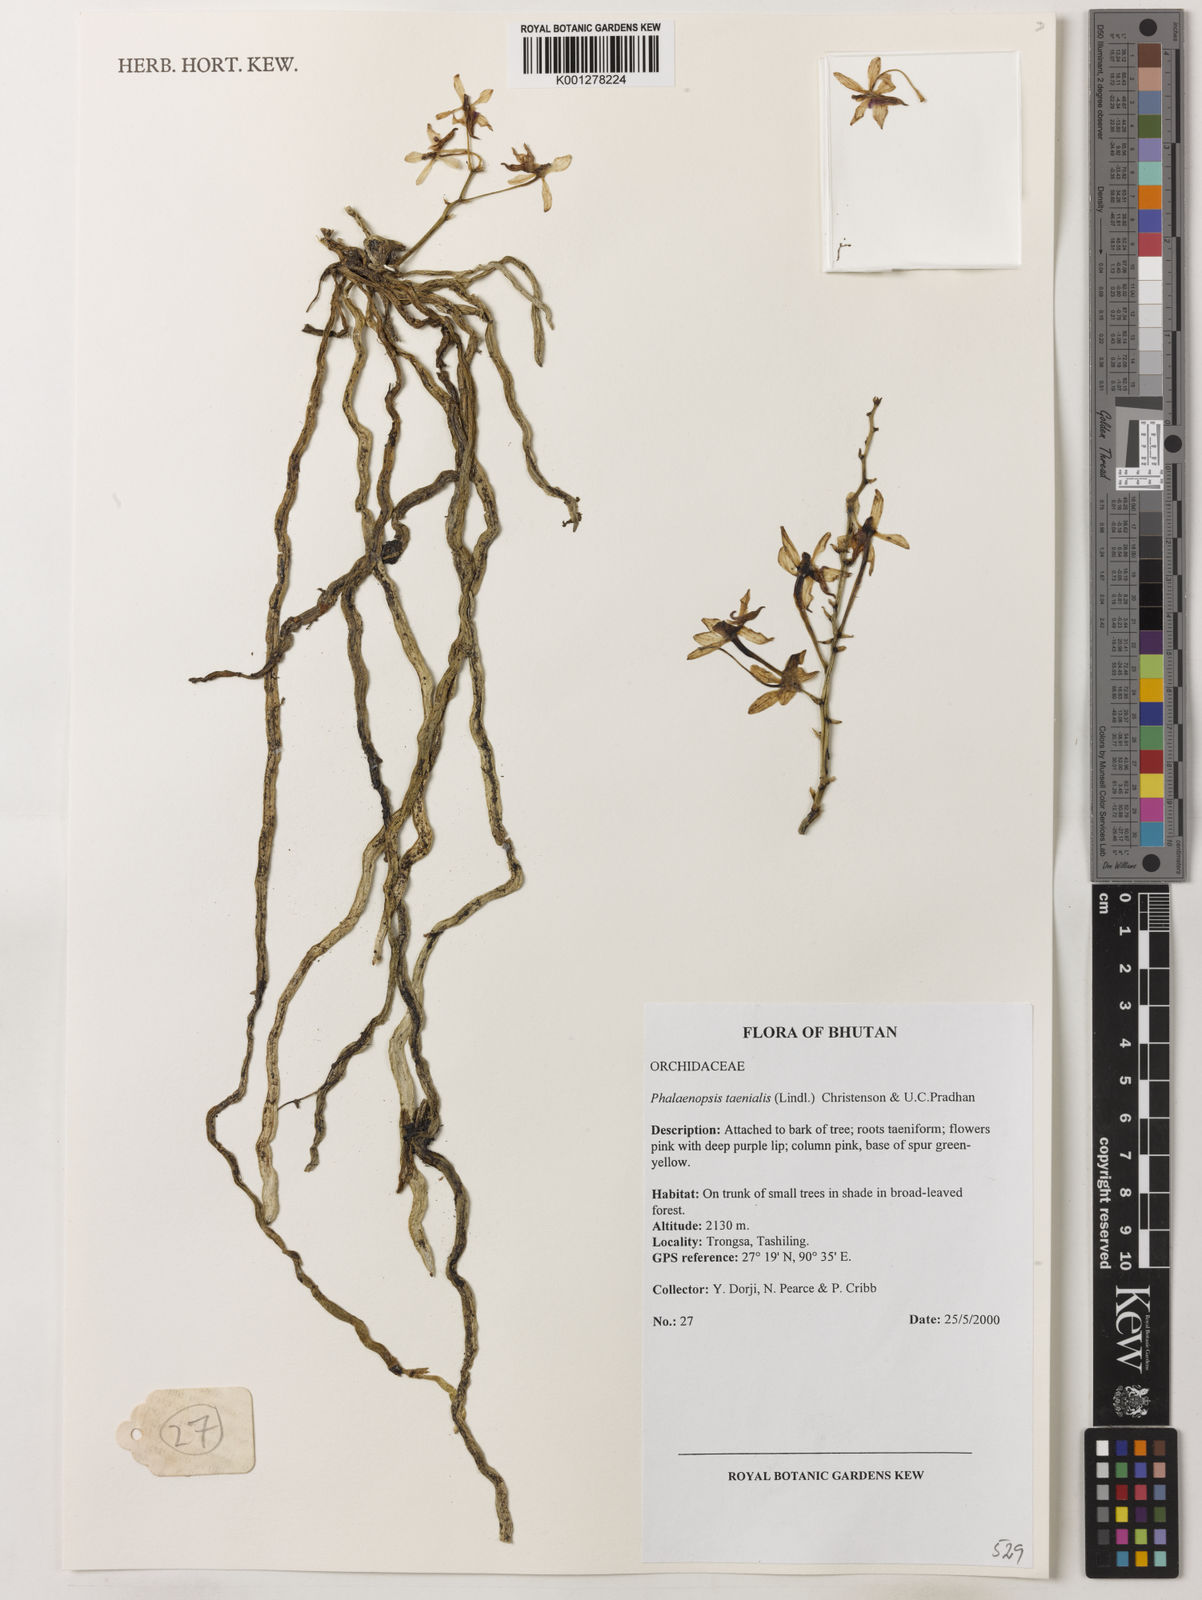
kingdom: Plantae
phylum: Tracheophyta
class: Liliopsida
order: Asparagales
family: Orchidaceae
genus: Phalaenopsis
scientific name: Phalaenopsis
